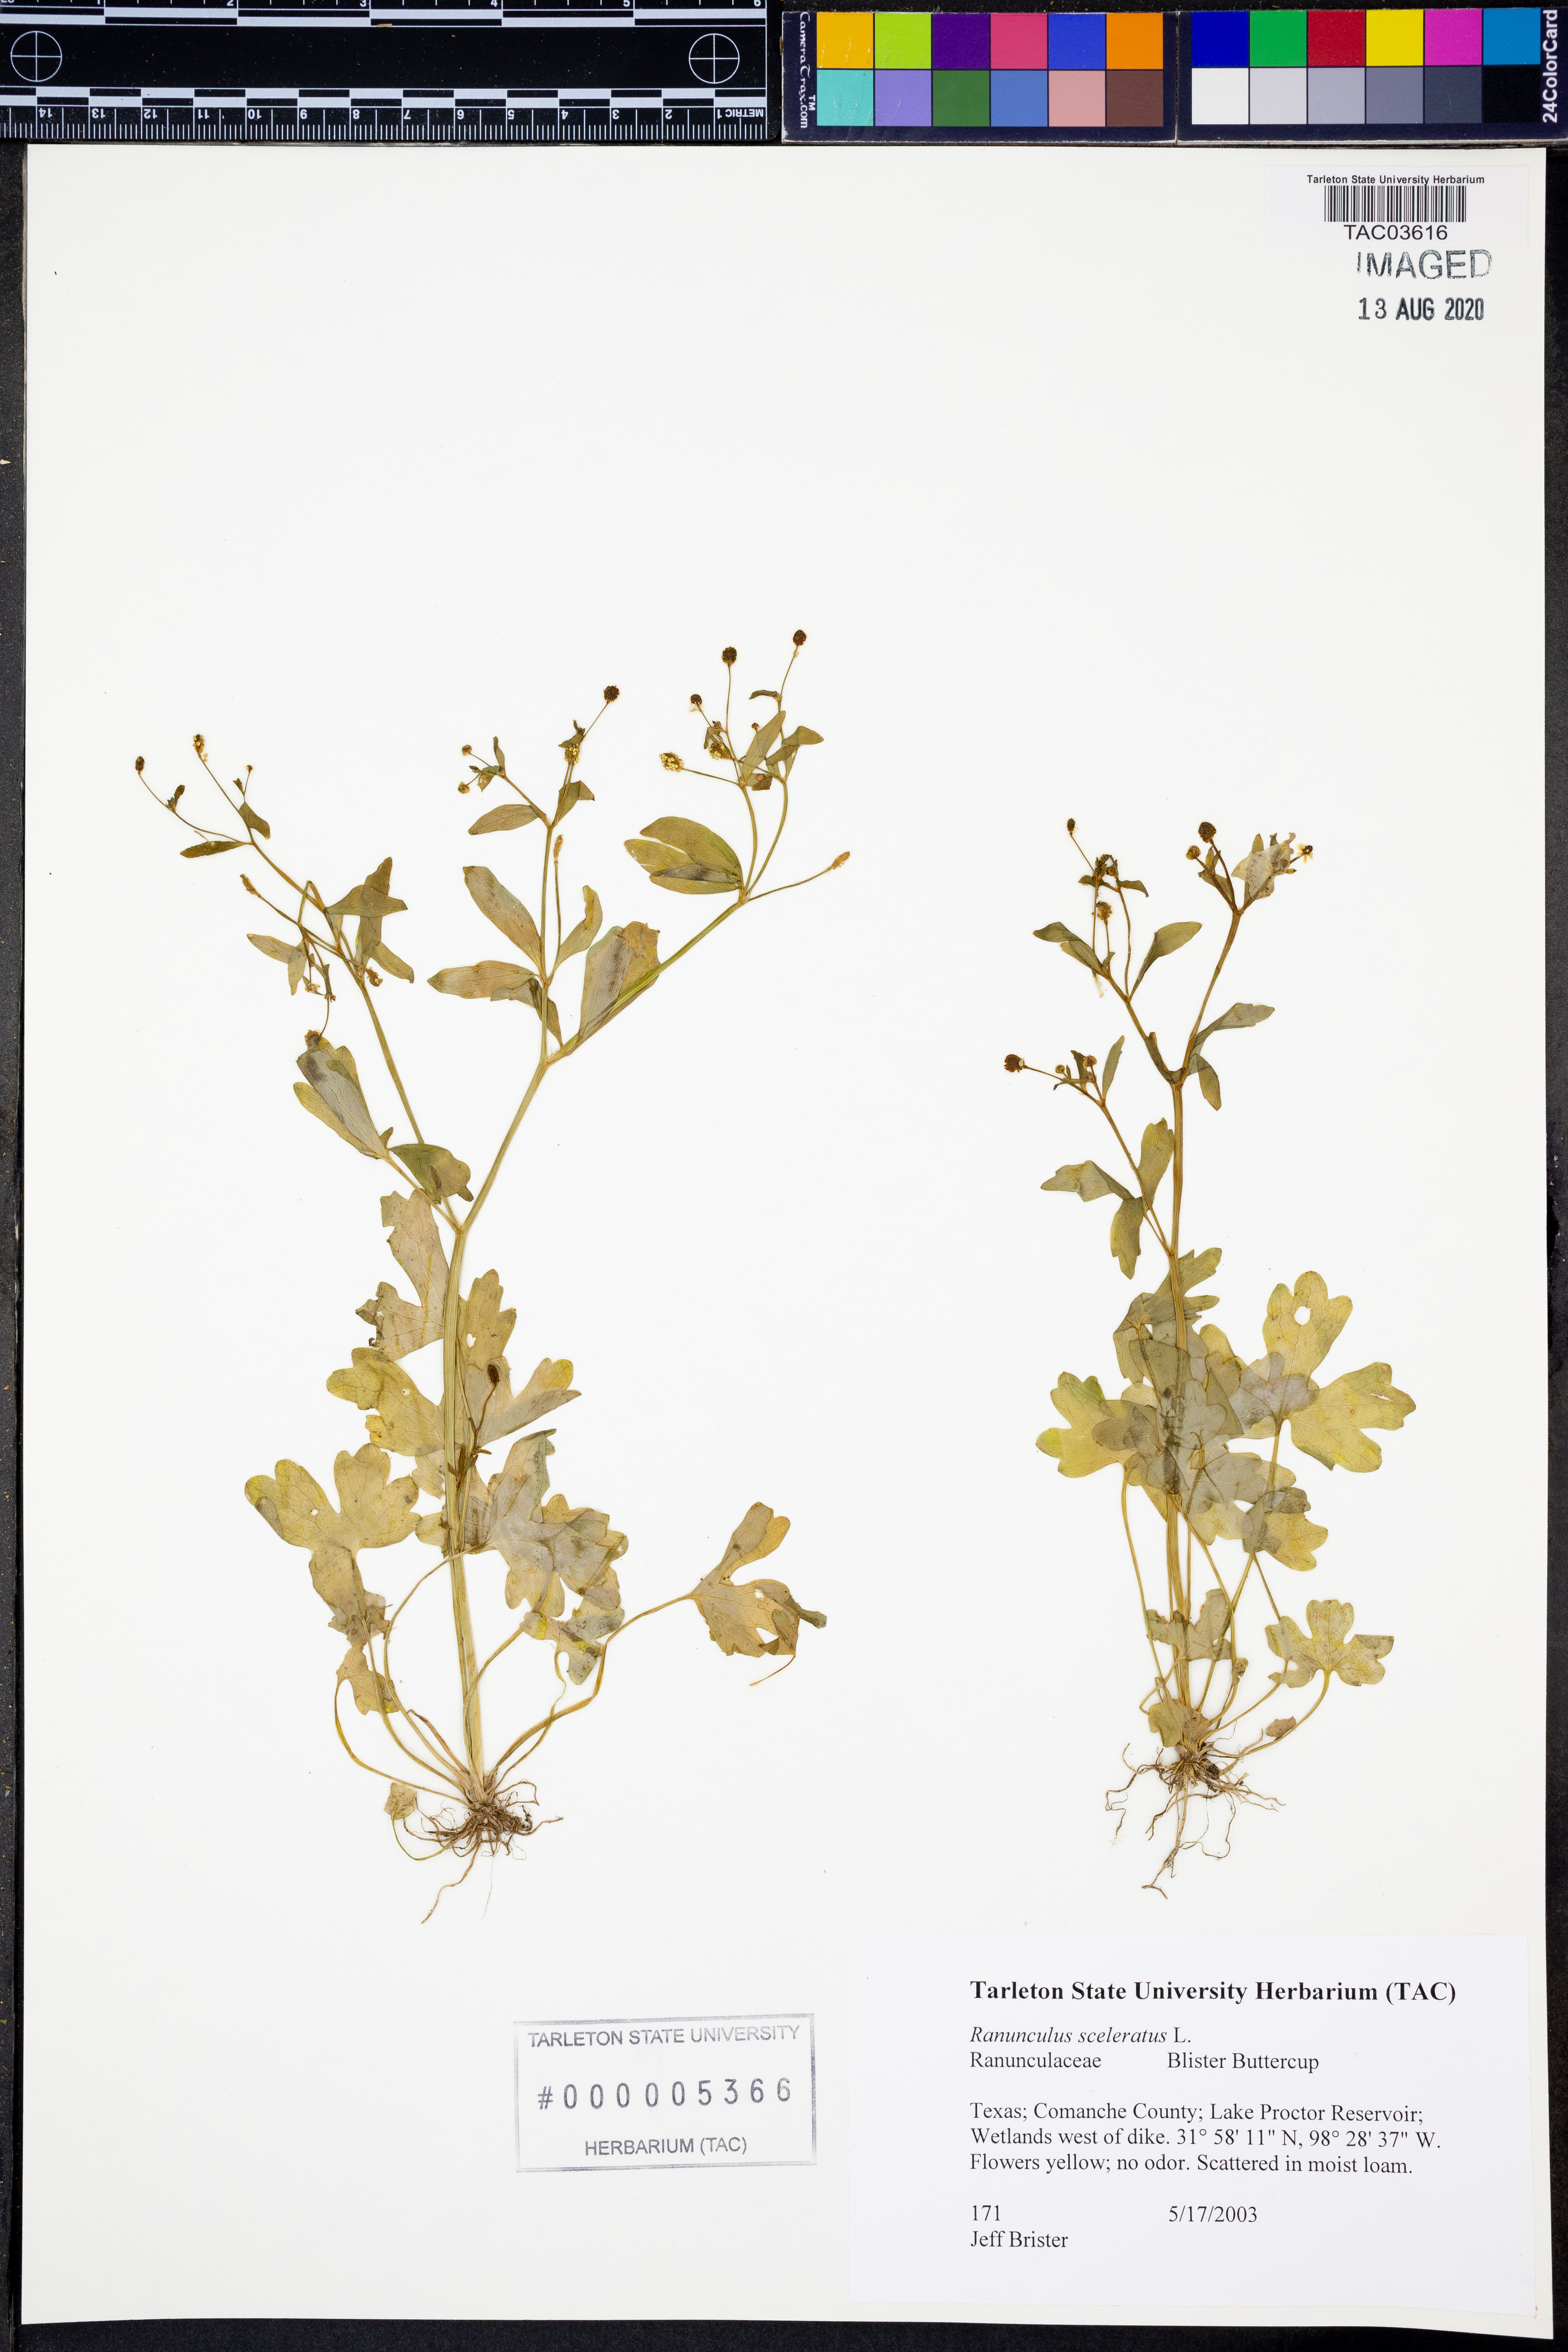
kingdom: Plantae
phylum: Tracheophyta
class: Magnoliopsida
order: Ranunculales
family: Ranunculaceae
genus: Ranunculus
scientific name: Ranunculus sceleratus
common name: Celery-leaved buttercup
